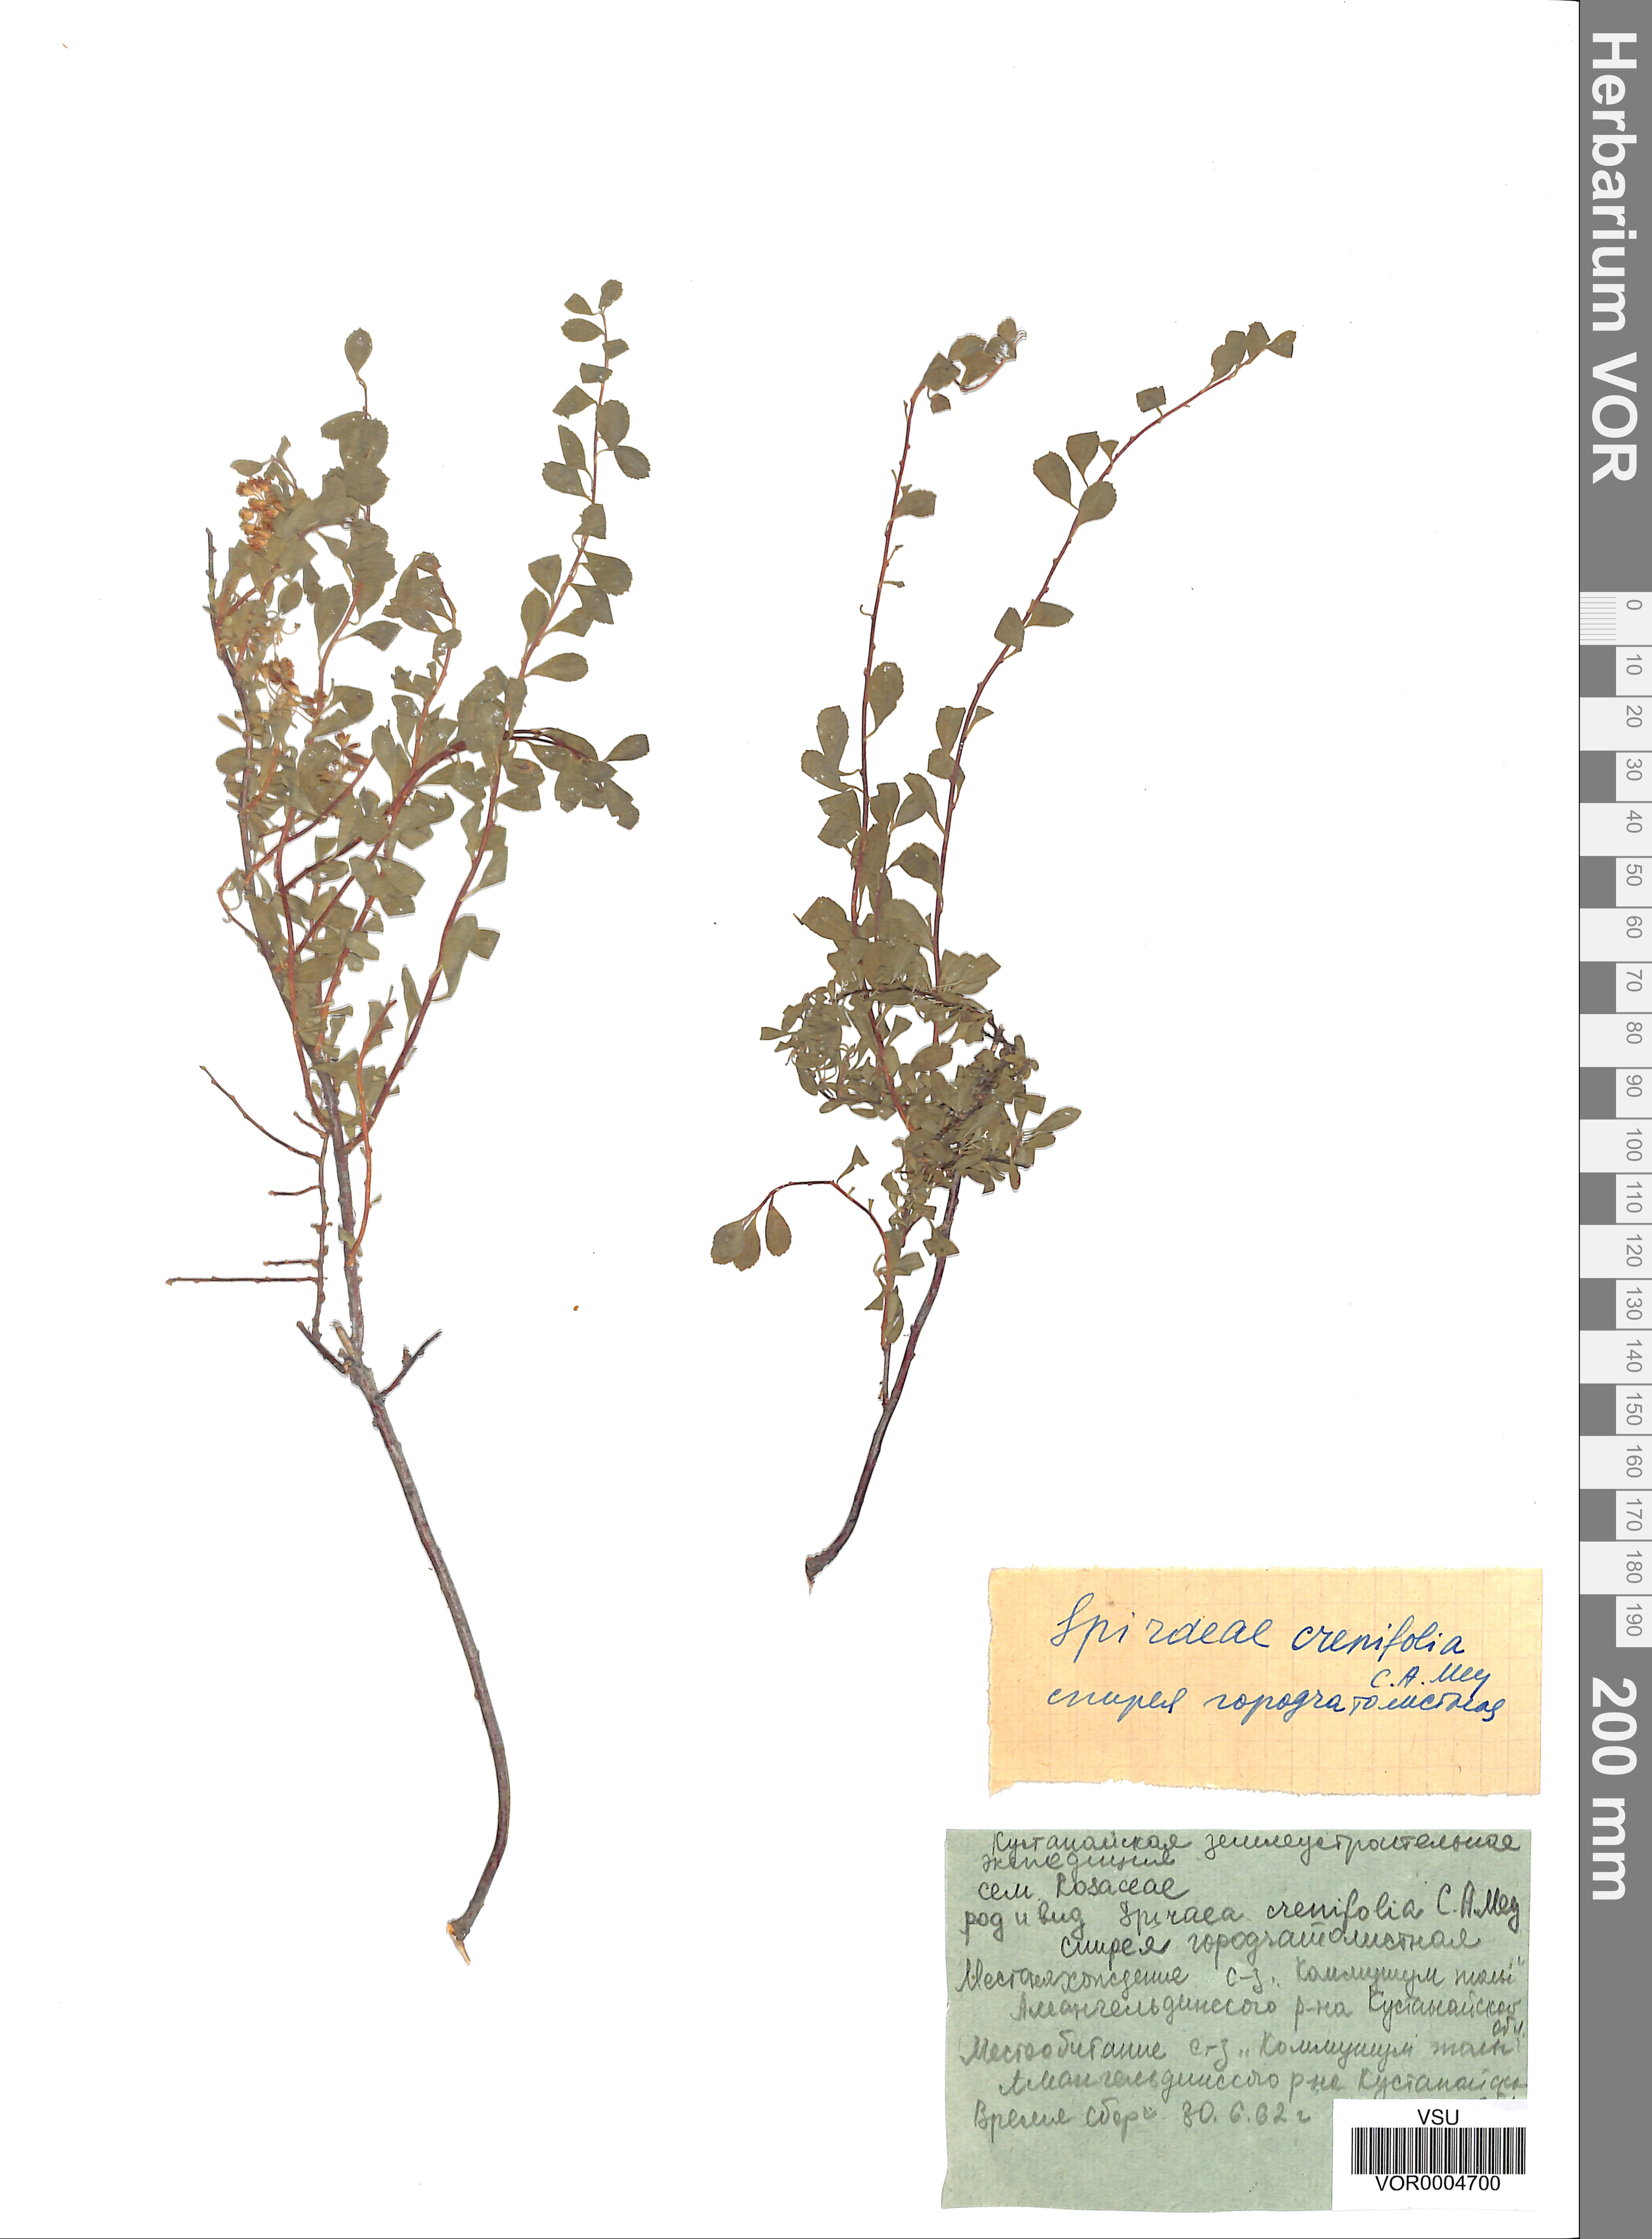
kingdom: Plantae
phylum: Tracheophyta
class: Magnoliopsida
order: Rosales
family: Rosaceae
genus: Spiraea
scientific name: Spiraea crenata
